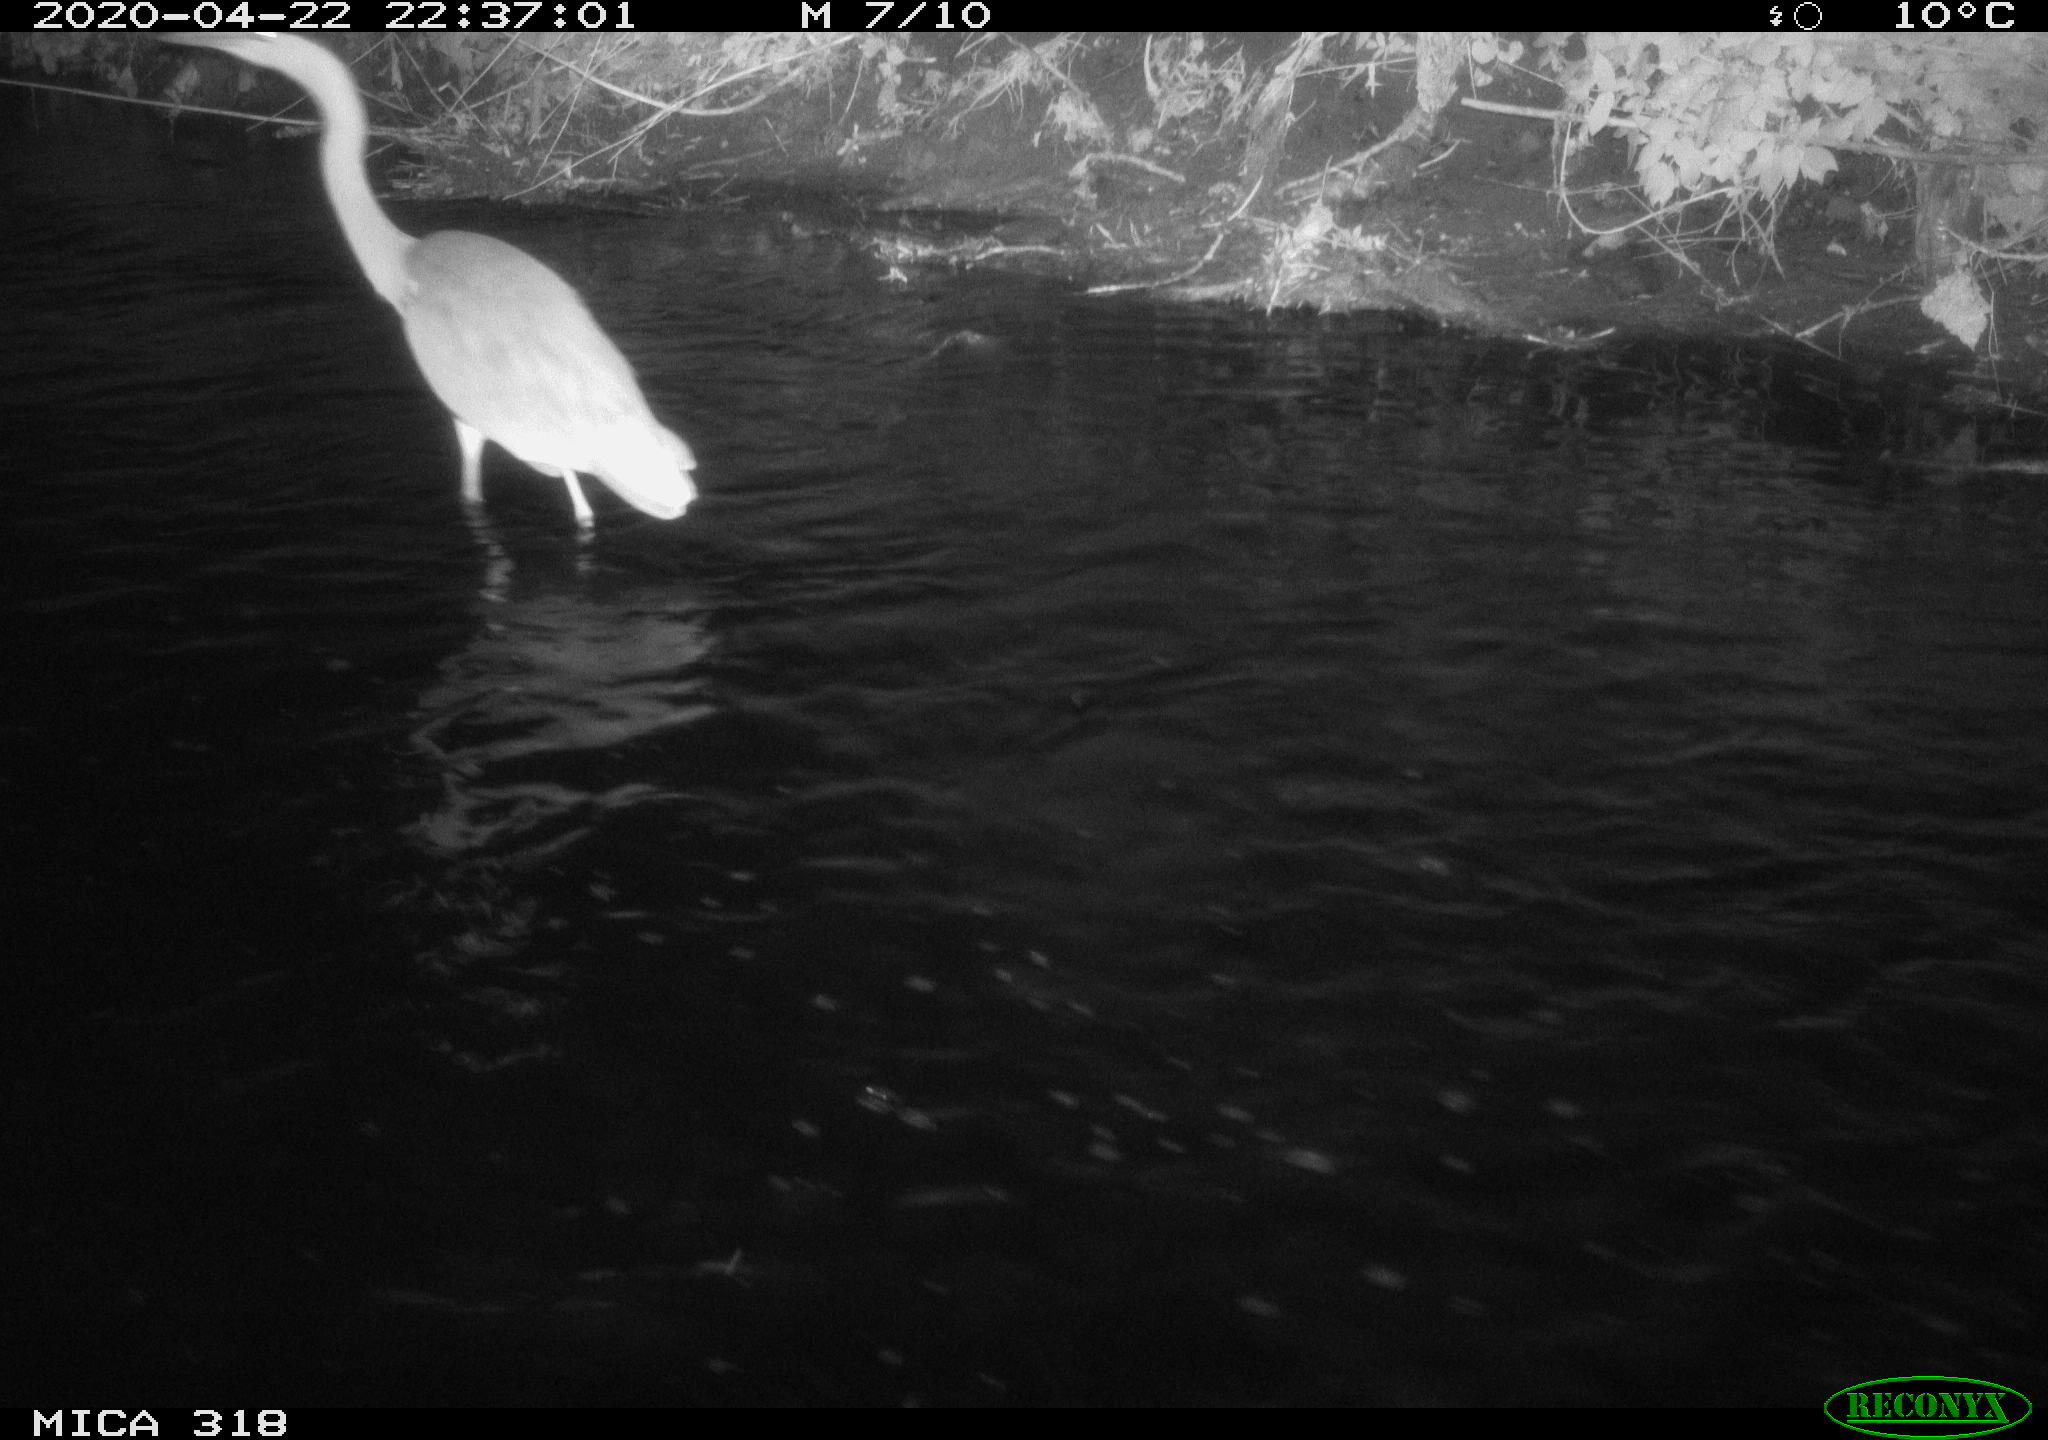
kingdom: Animalia
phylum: Chordata
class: Aves
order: Pelecaniformes
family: Ardeidae
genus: Ardea
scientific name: Ardea cinerea
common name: Grey heron
